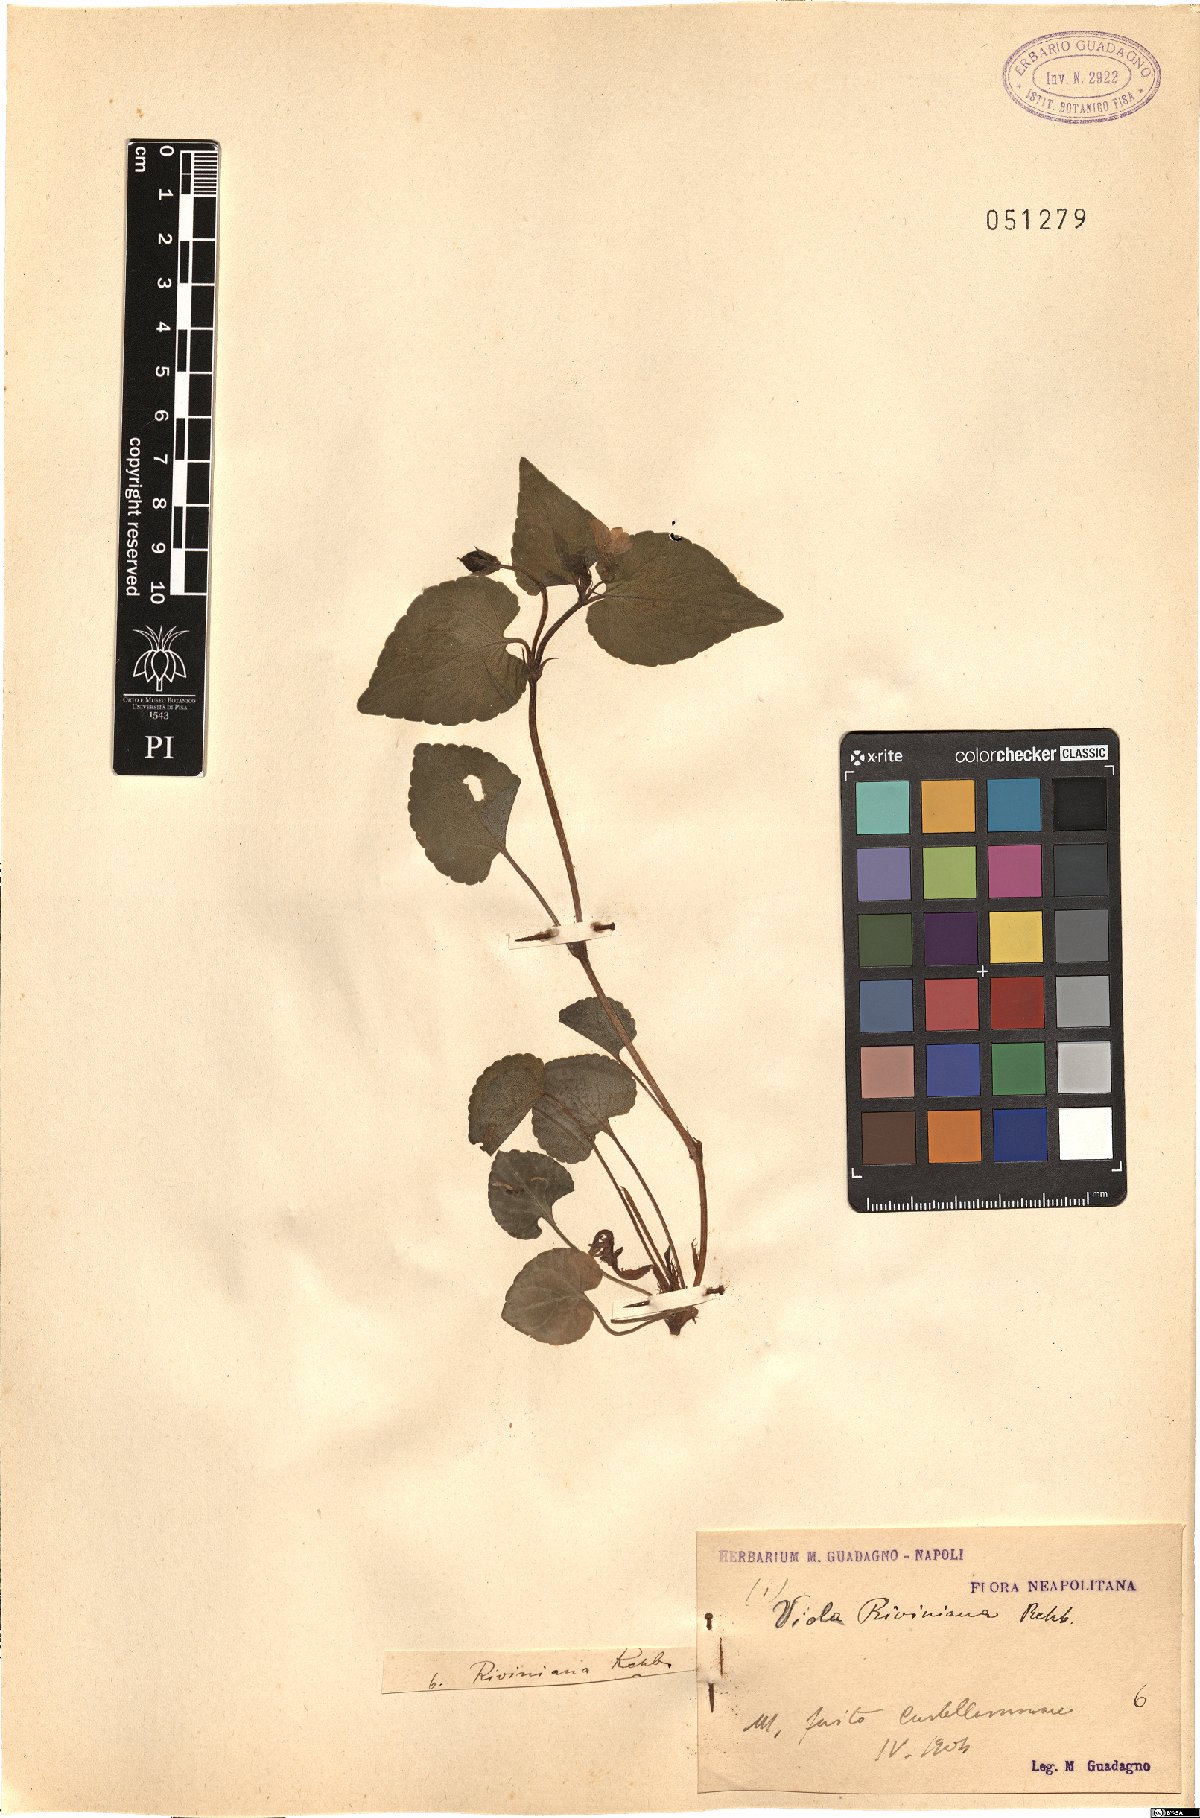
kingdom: Plantae
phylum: Tracheophyta
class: Magnoliopsida
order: Malpighiales
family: Violaceae
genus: Viola
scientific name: Viola riviniana
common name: Common dog-violet
